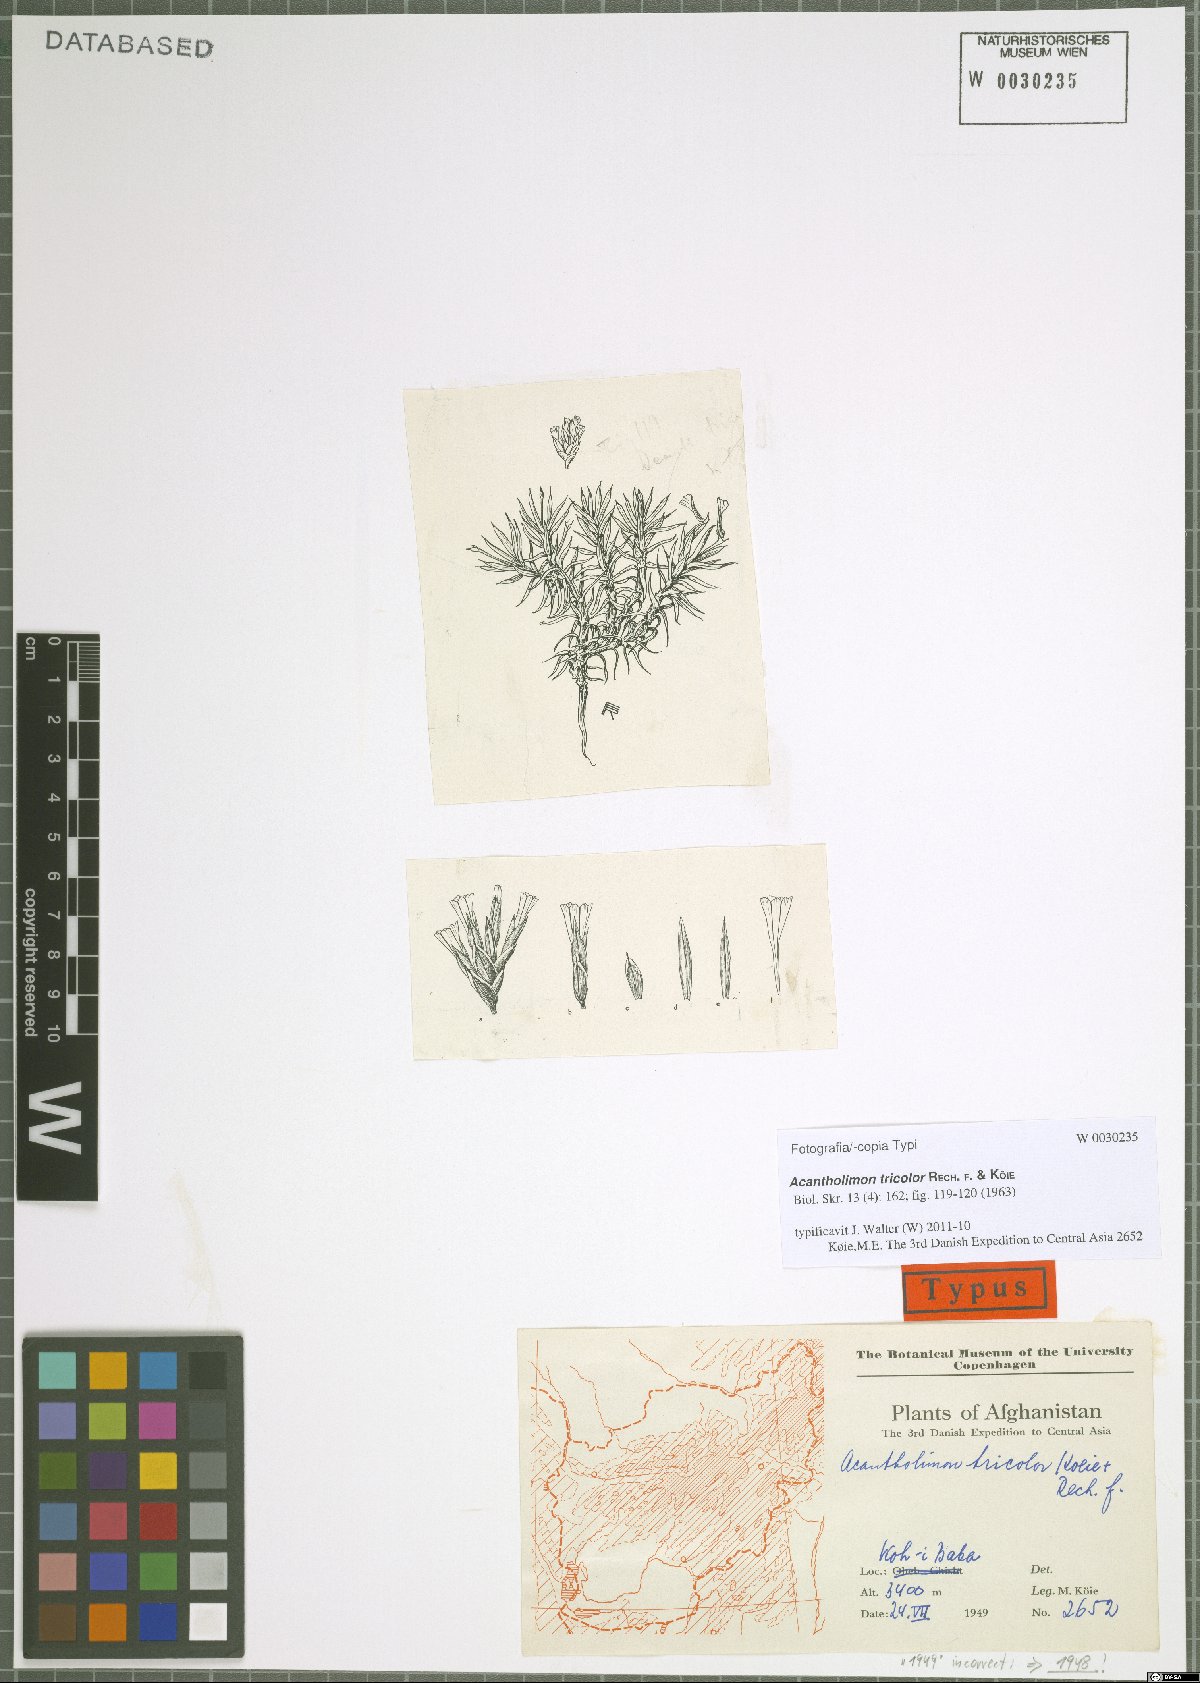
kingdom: Plantae
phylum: Tracheophyta
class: Magnoliopsida
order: Caryophyllales
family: Plumbaginaceae
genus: Acantholimon
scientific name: Acantholimon tricolor
